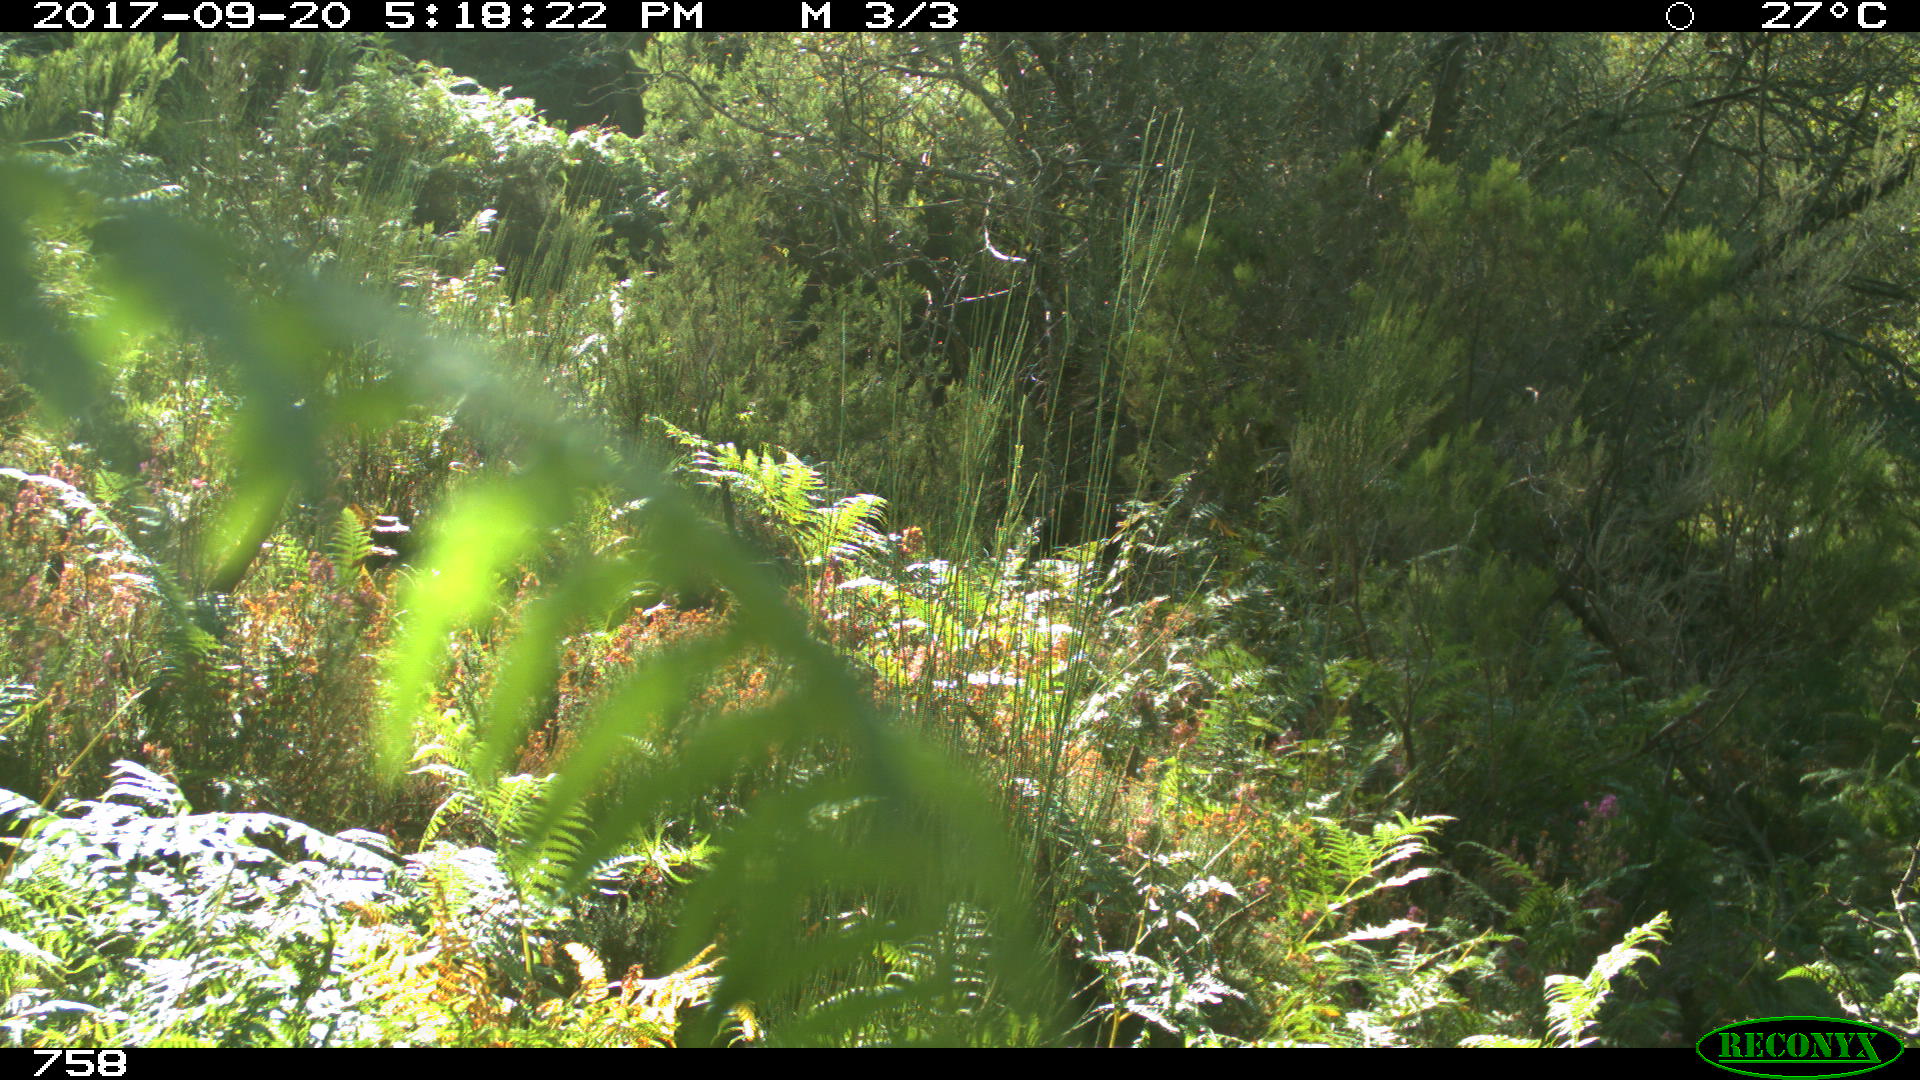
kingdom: Animalia
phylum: Chordata
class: Mammalia
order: Perissodactyla
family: Equidae
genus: Equus
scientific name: Equus caballus
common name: Horse
